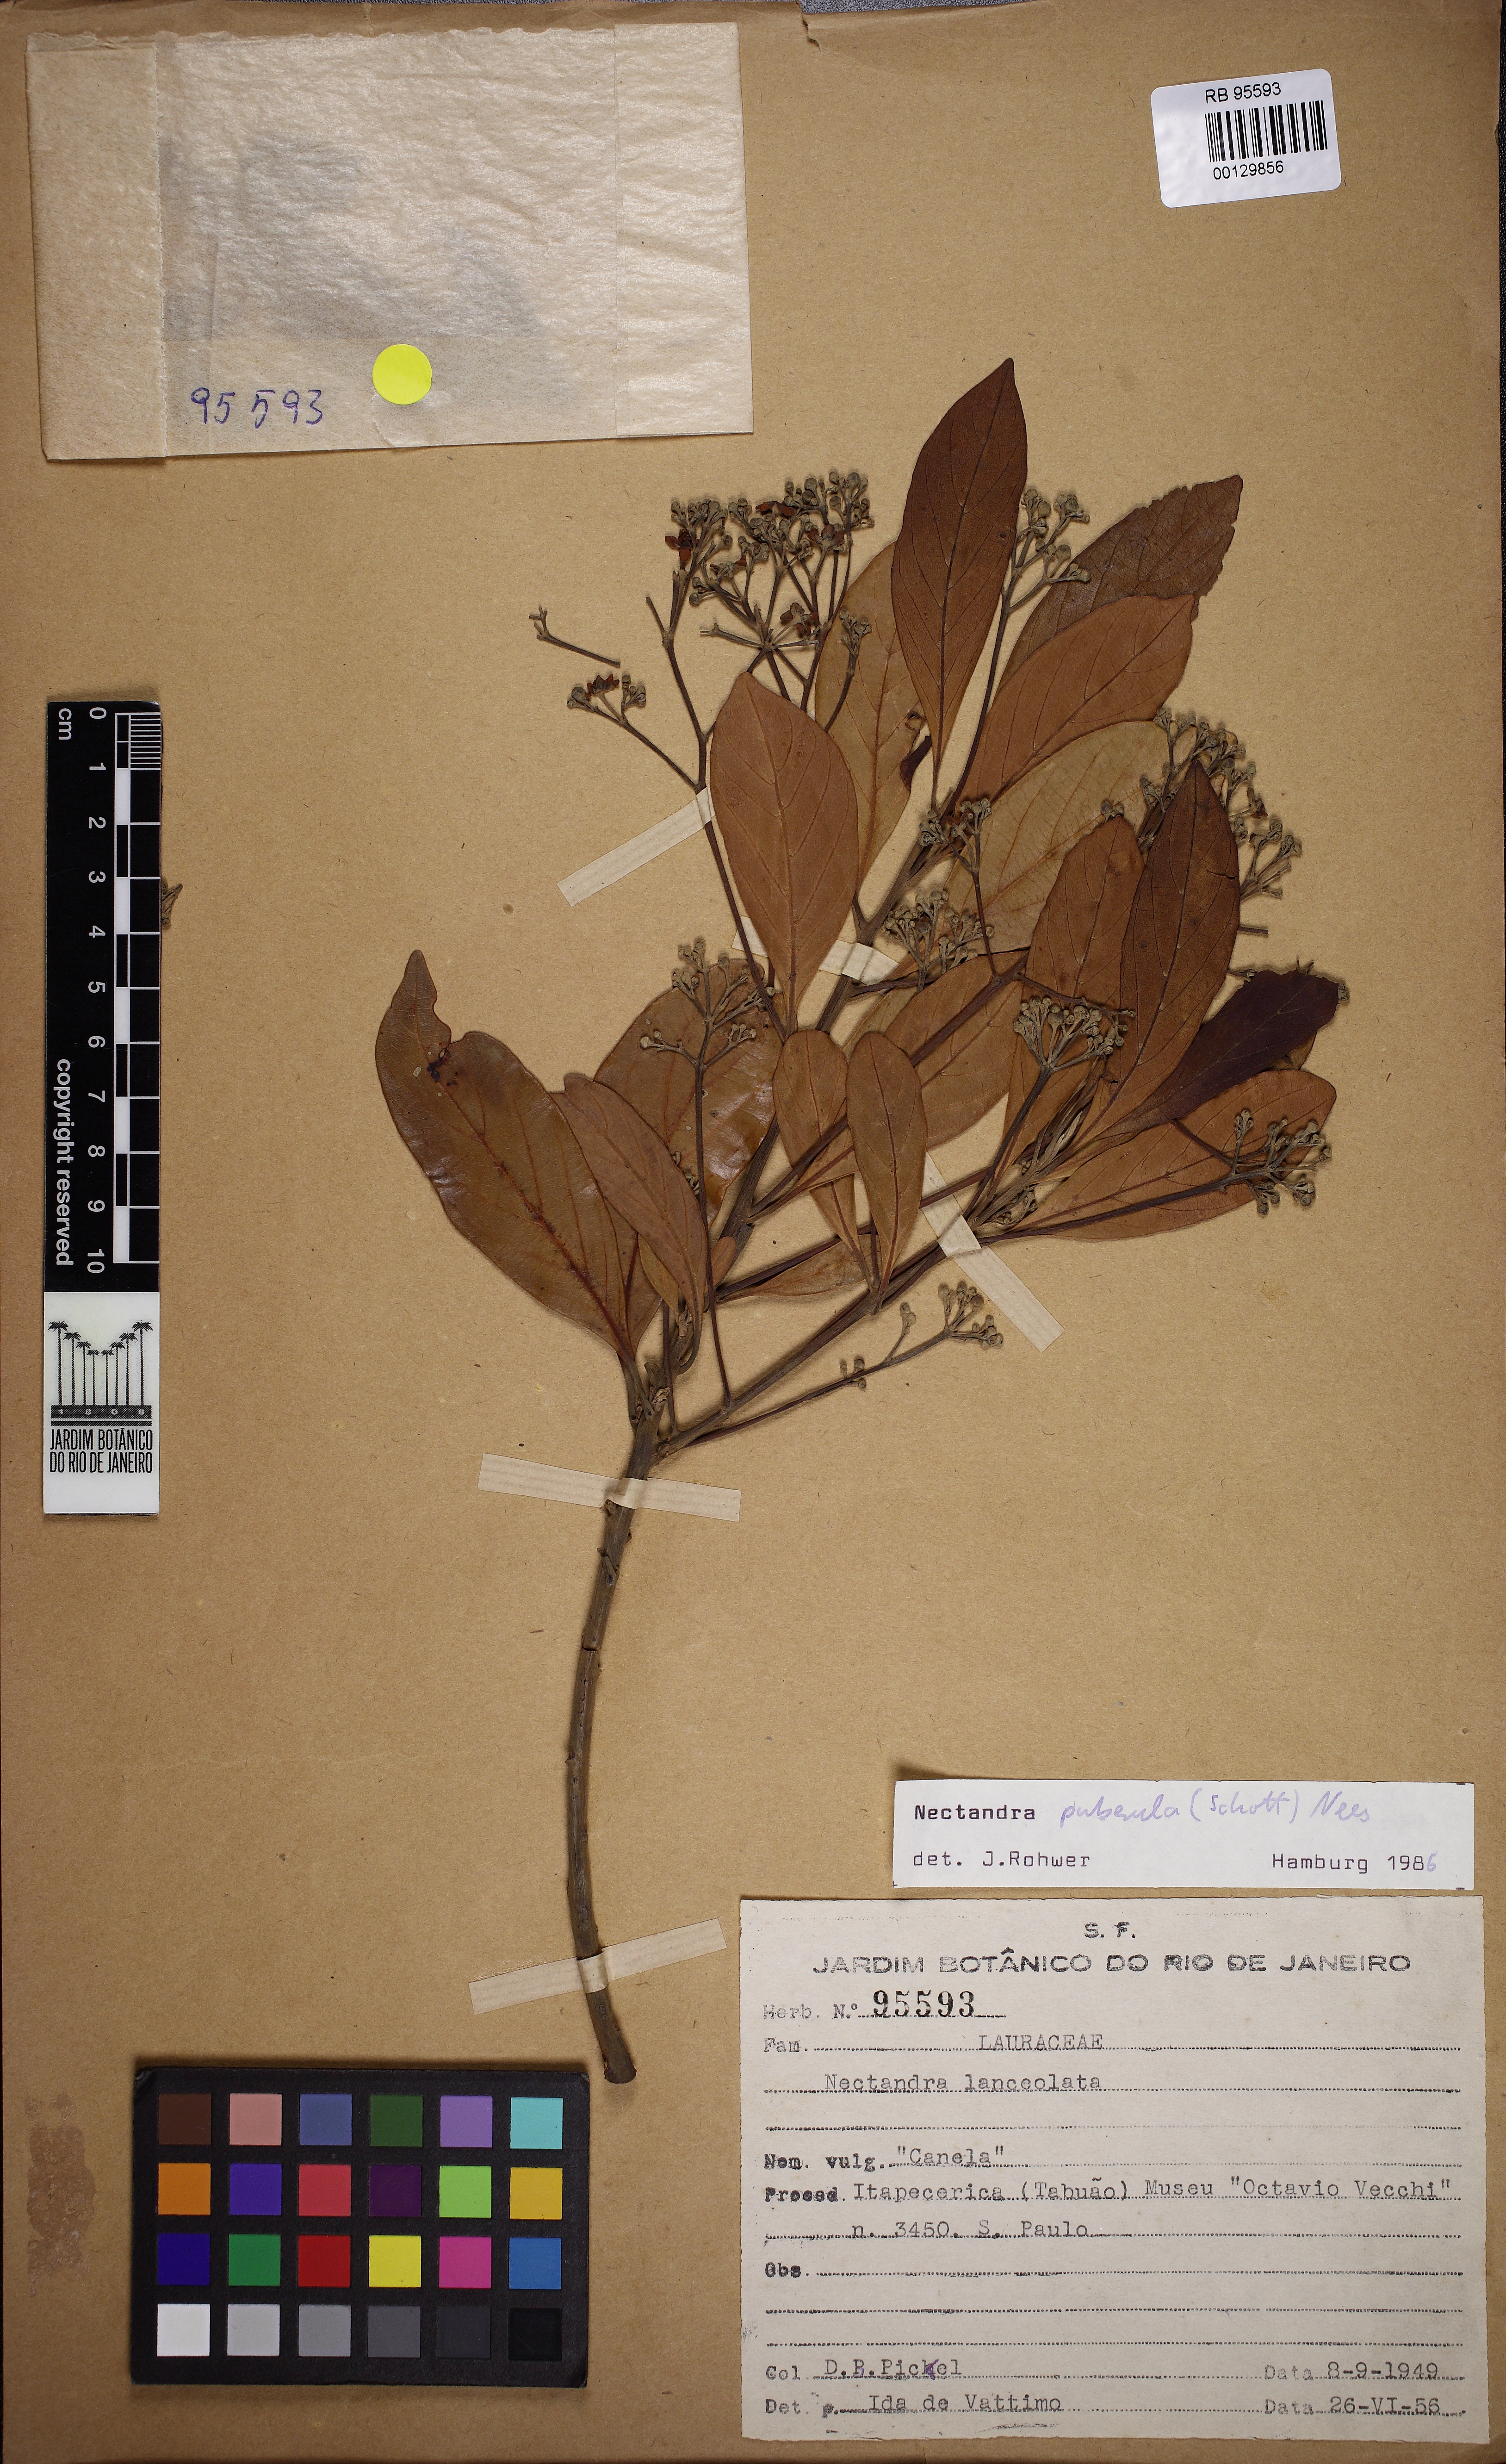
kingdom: Plantae
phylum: Tracheophyta
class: Magnoliopsida
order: Laurales
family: Lauraceae
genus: Nectandra
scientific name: Nectandra puberula
